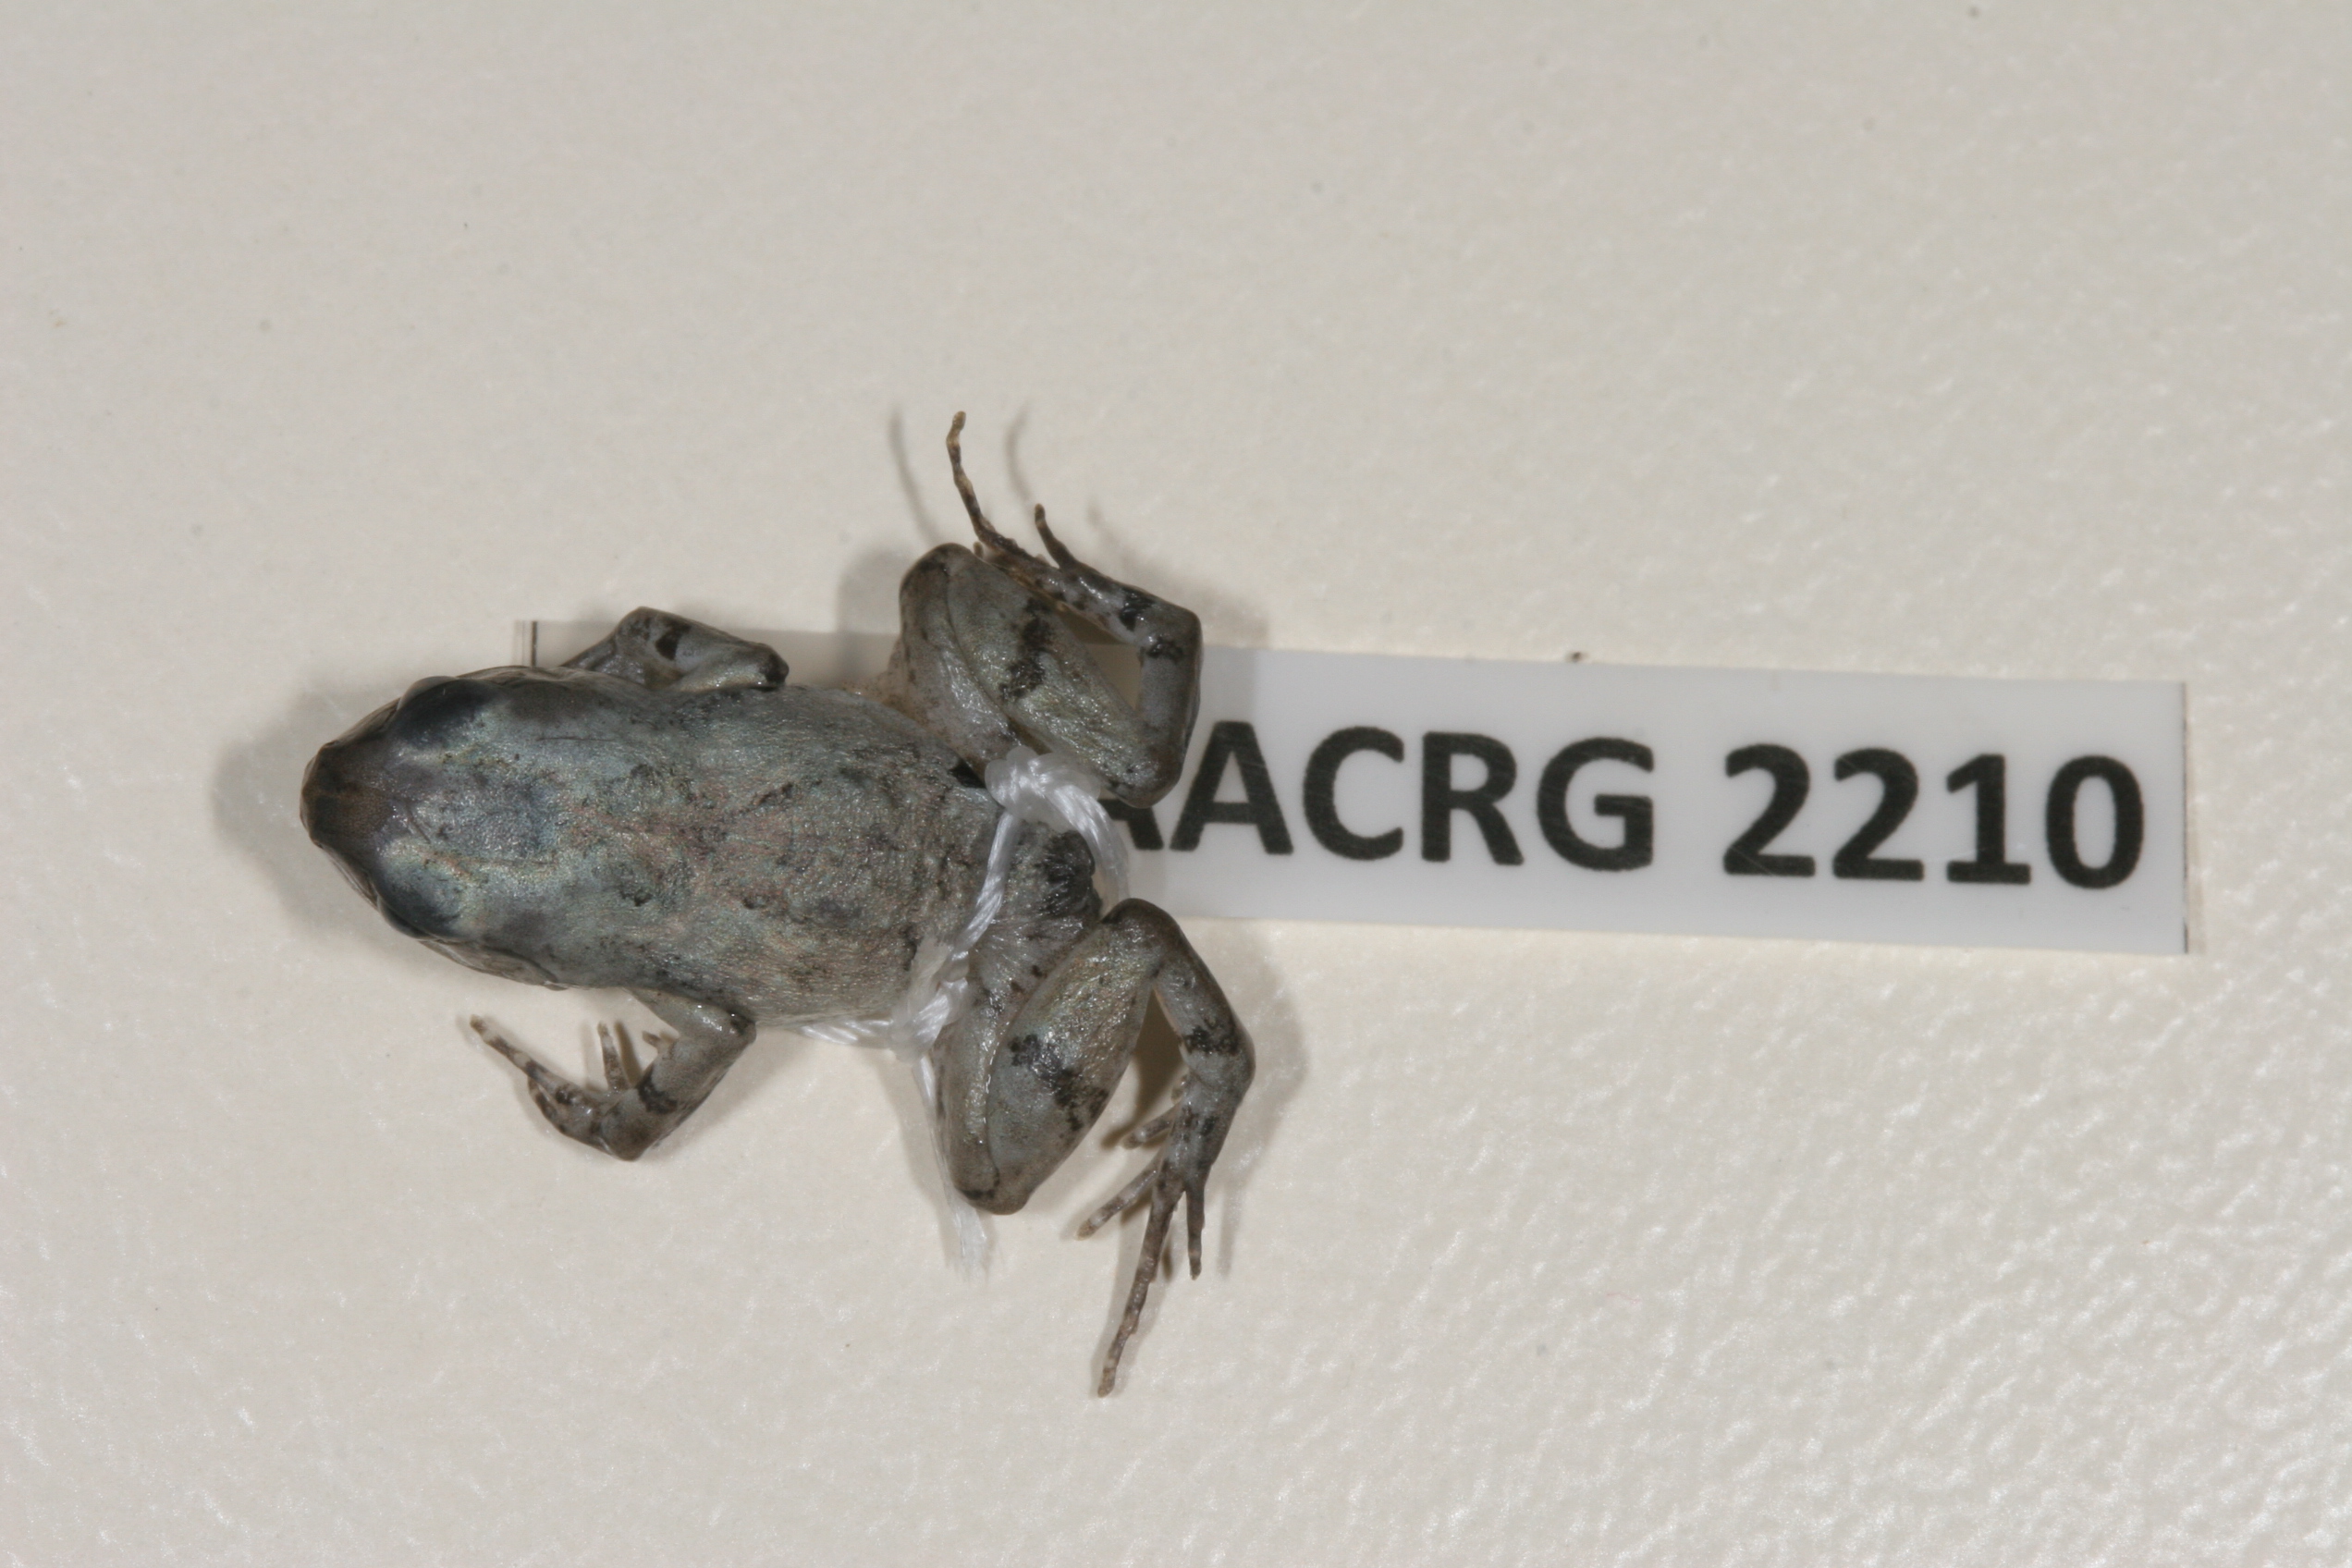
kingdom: Animalia
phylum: Chordata
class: Amphibia
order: Anura
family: Arthroleptidae
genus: Arthroleptis
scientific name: Arthroleptis wahlbergii
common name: Bush squeaker
